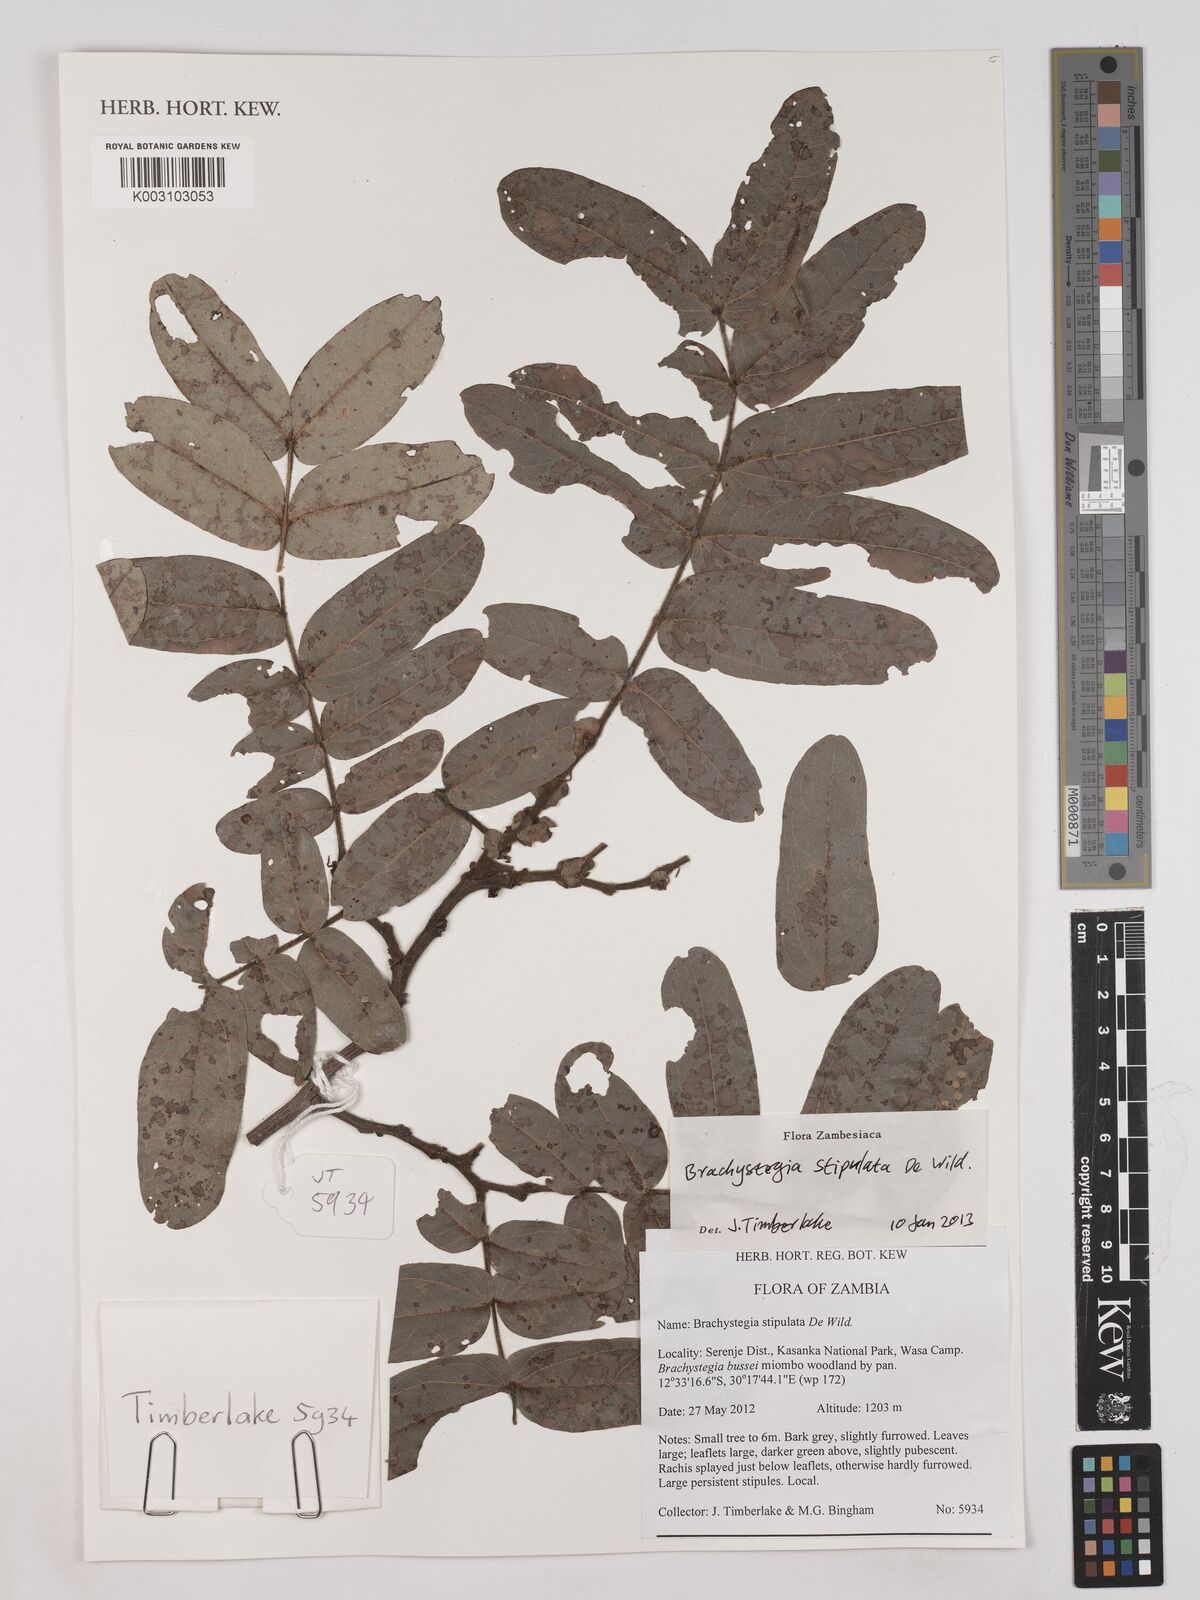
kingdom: Plantae
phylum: Tracheophyta
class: Magnoliopsida
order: Fabales
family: Fabaceae
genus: Brachystegia
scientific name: Brachystegia stipulata
